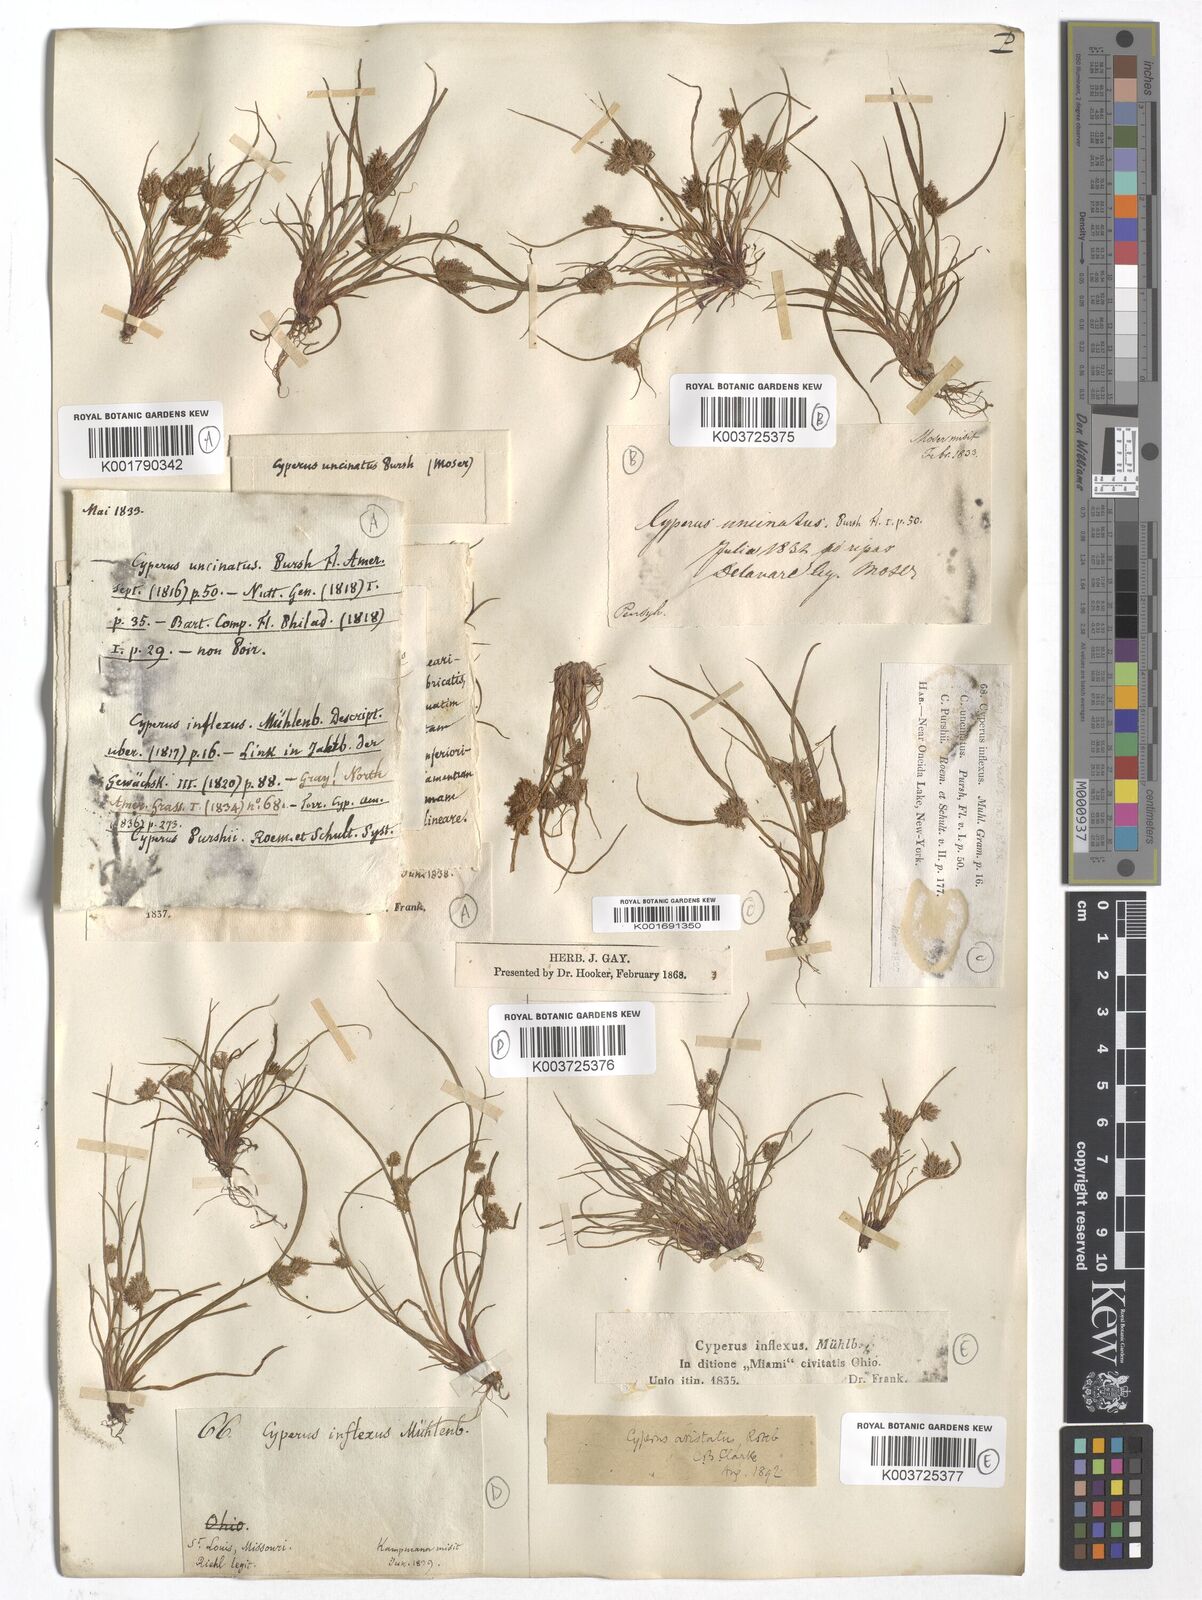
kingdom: Plantae
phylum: Tracheophyta
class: Liliopsida
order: Poales
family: Cyperaceae
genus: Cyperus
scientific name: Cyperus aristatus
